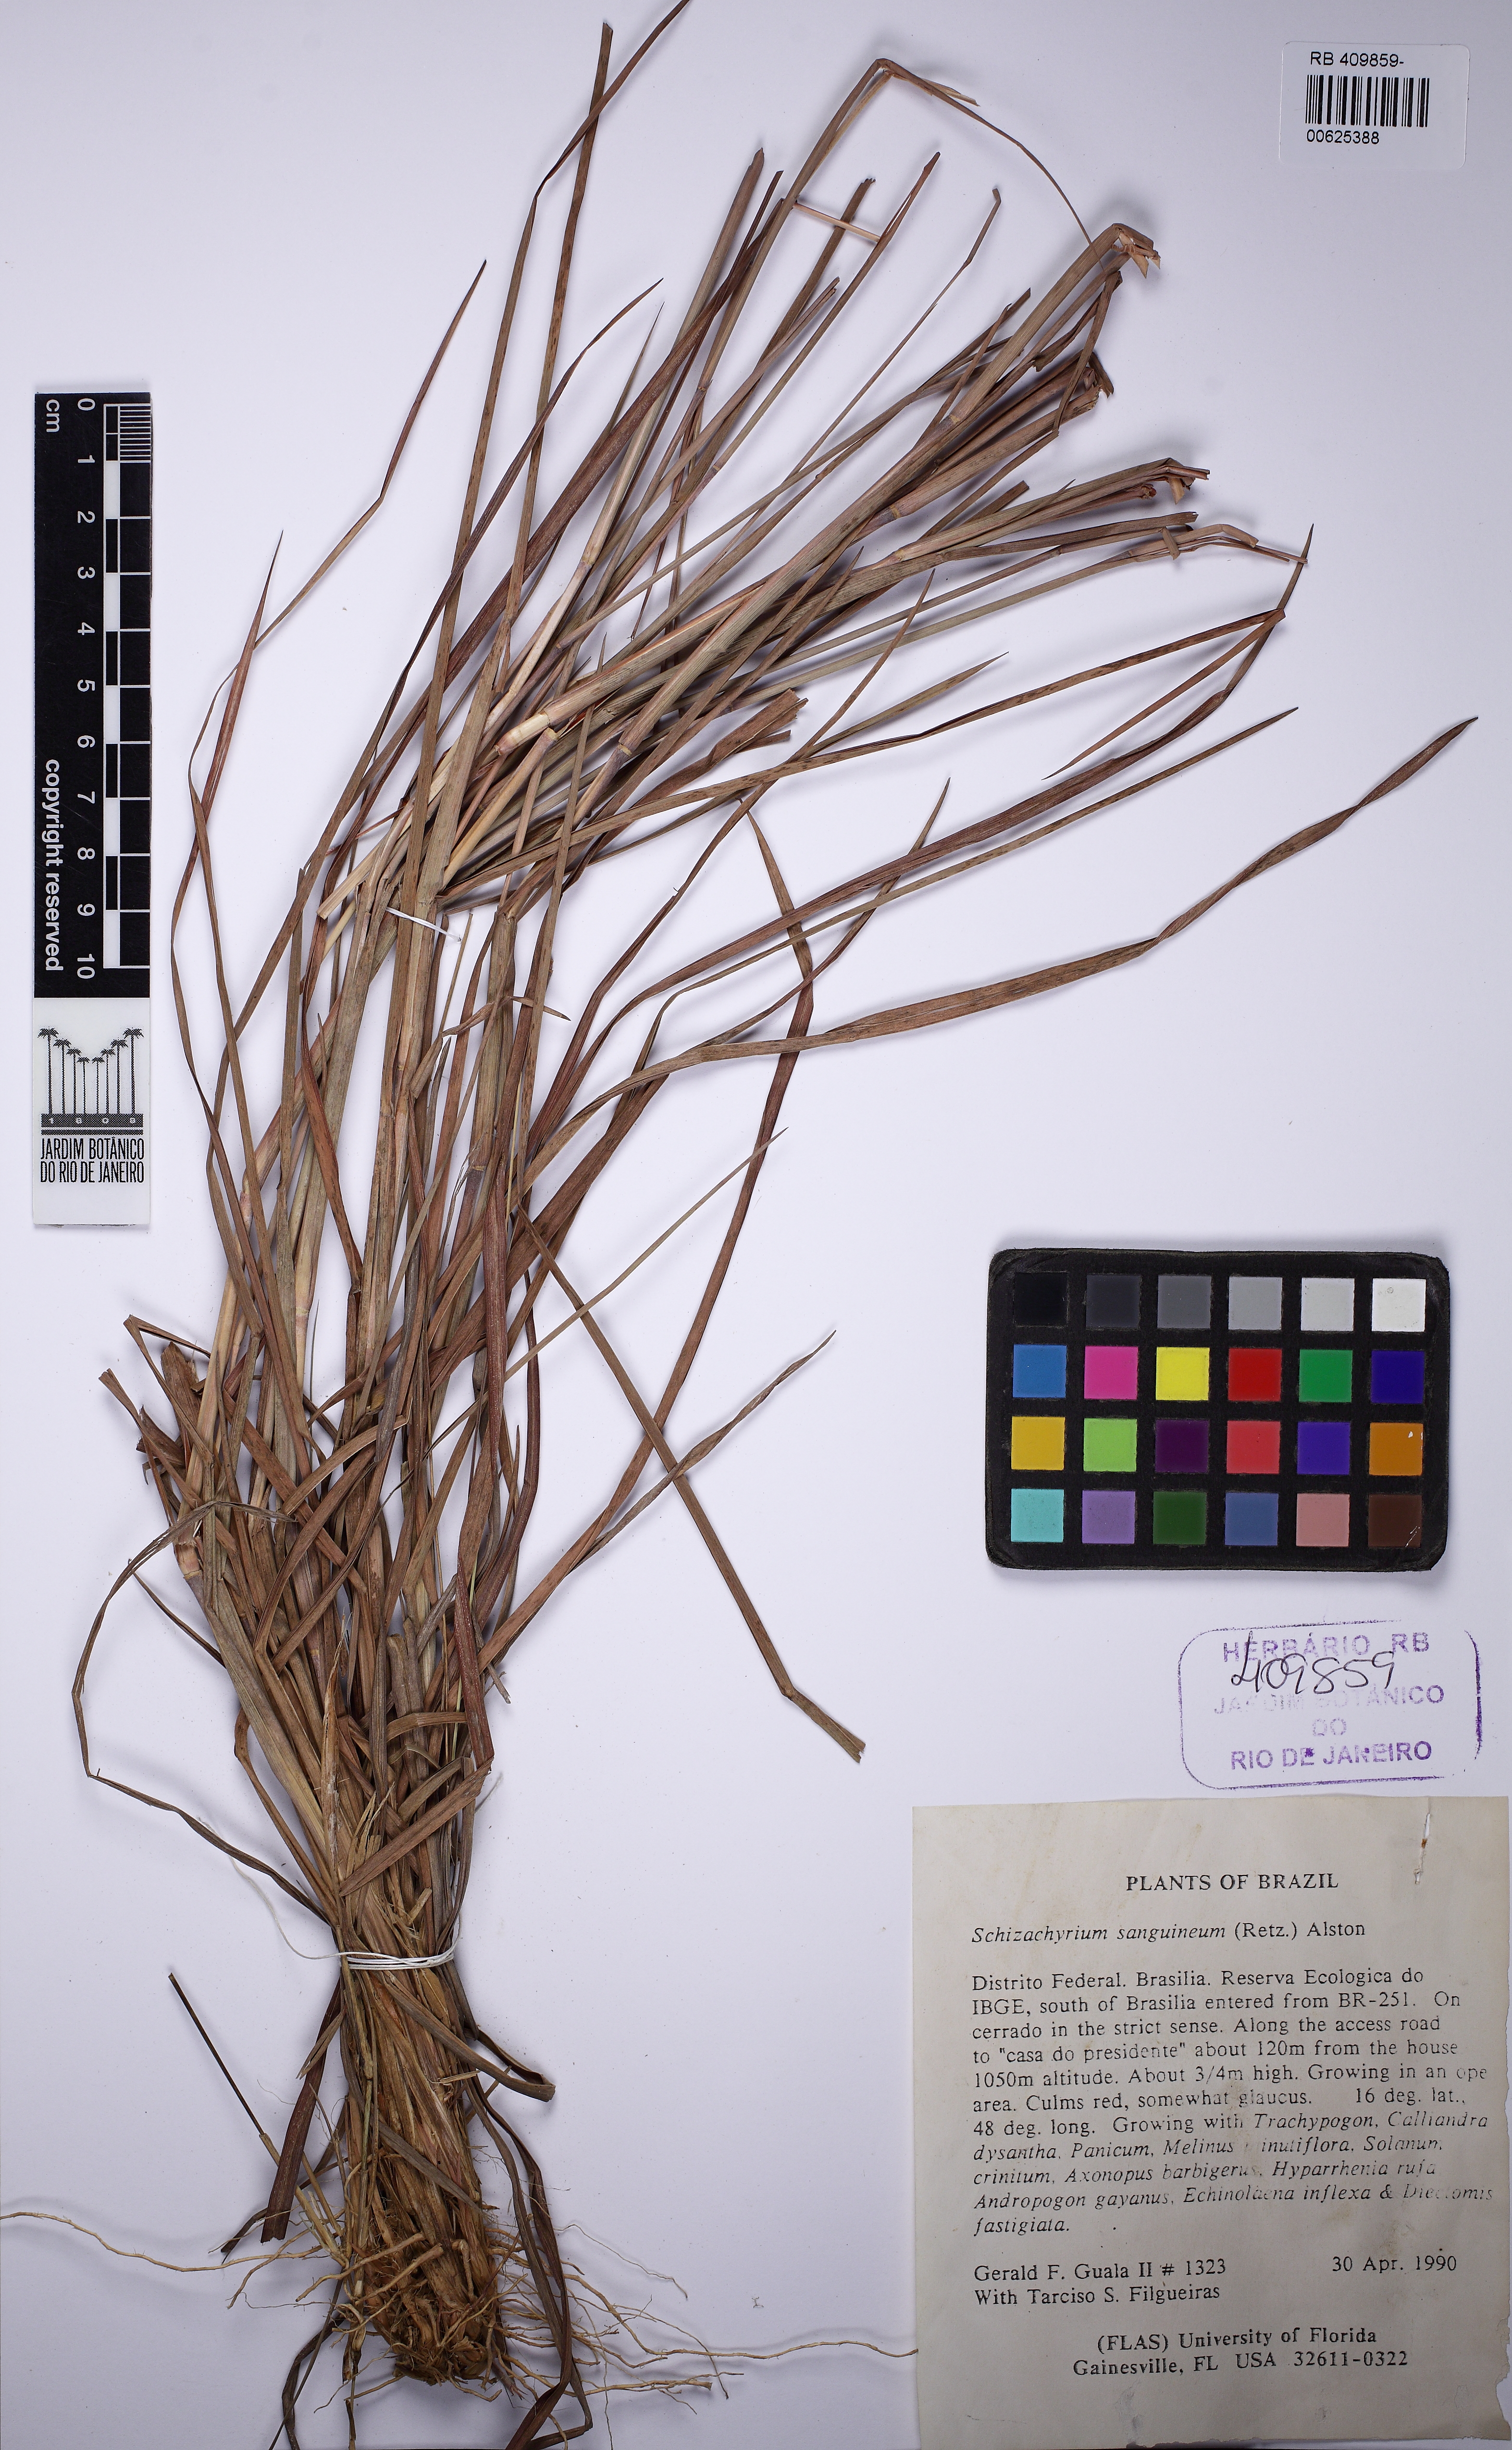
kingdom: Plantae
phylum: Tracheophyta
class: Liliopsida
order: Poales
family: Poaceae
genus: Schizachyrium
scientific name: Schizachyrium sanguineum
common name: Crimson bluestem
